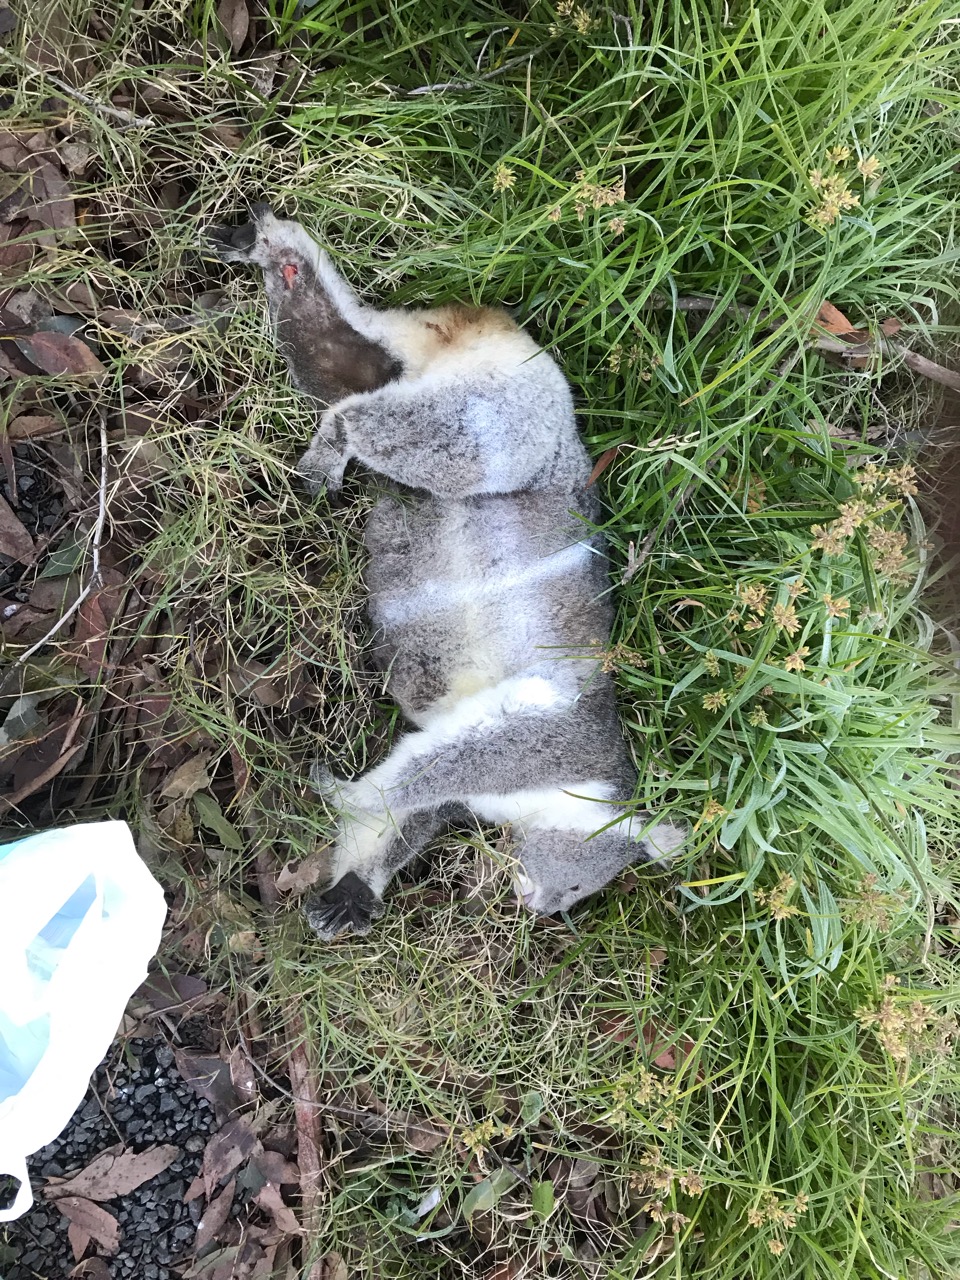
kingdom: Animalia
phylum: Chordata
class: Mammalia
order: Diprotodontia
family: Phascolarctidae
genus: Phascolarctos
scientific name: Phascolarctos cinereus
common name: Koala
